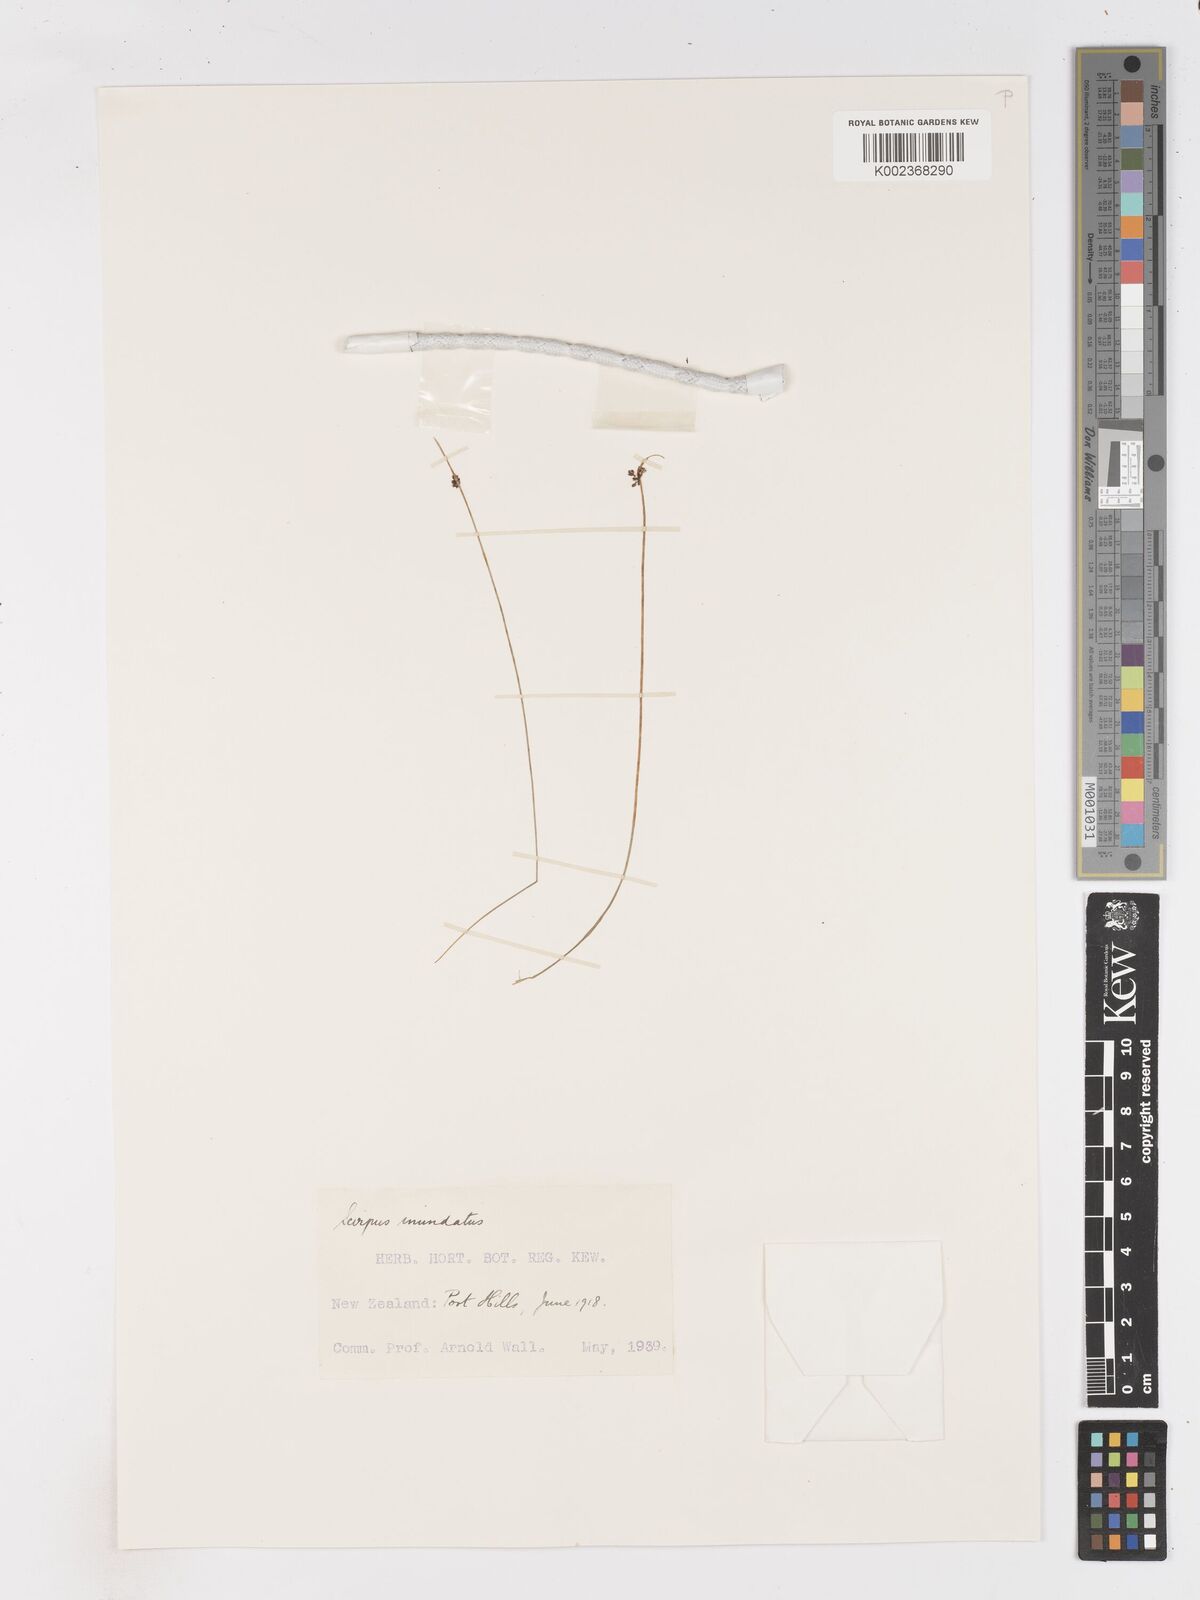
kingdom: Plantae
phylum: Tracheophyta
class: Liliopsida
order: Poales
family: Cyperaceae
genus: Isolepis
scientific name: Isolepis inundata
